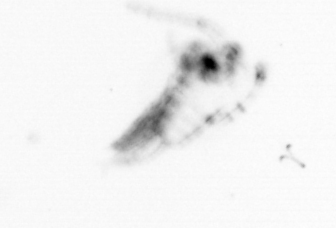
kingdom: Animalia
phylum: Arthropoda
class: Copepoda
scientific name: Copepoda
